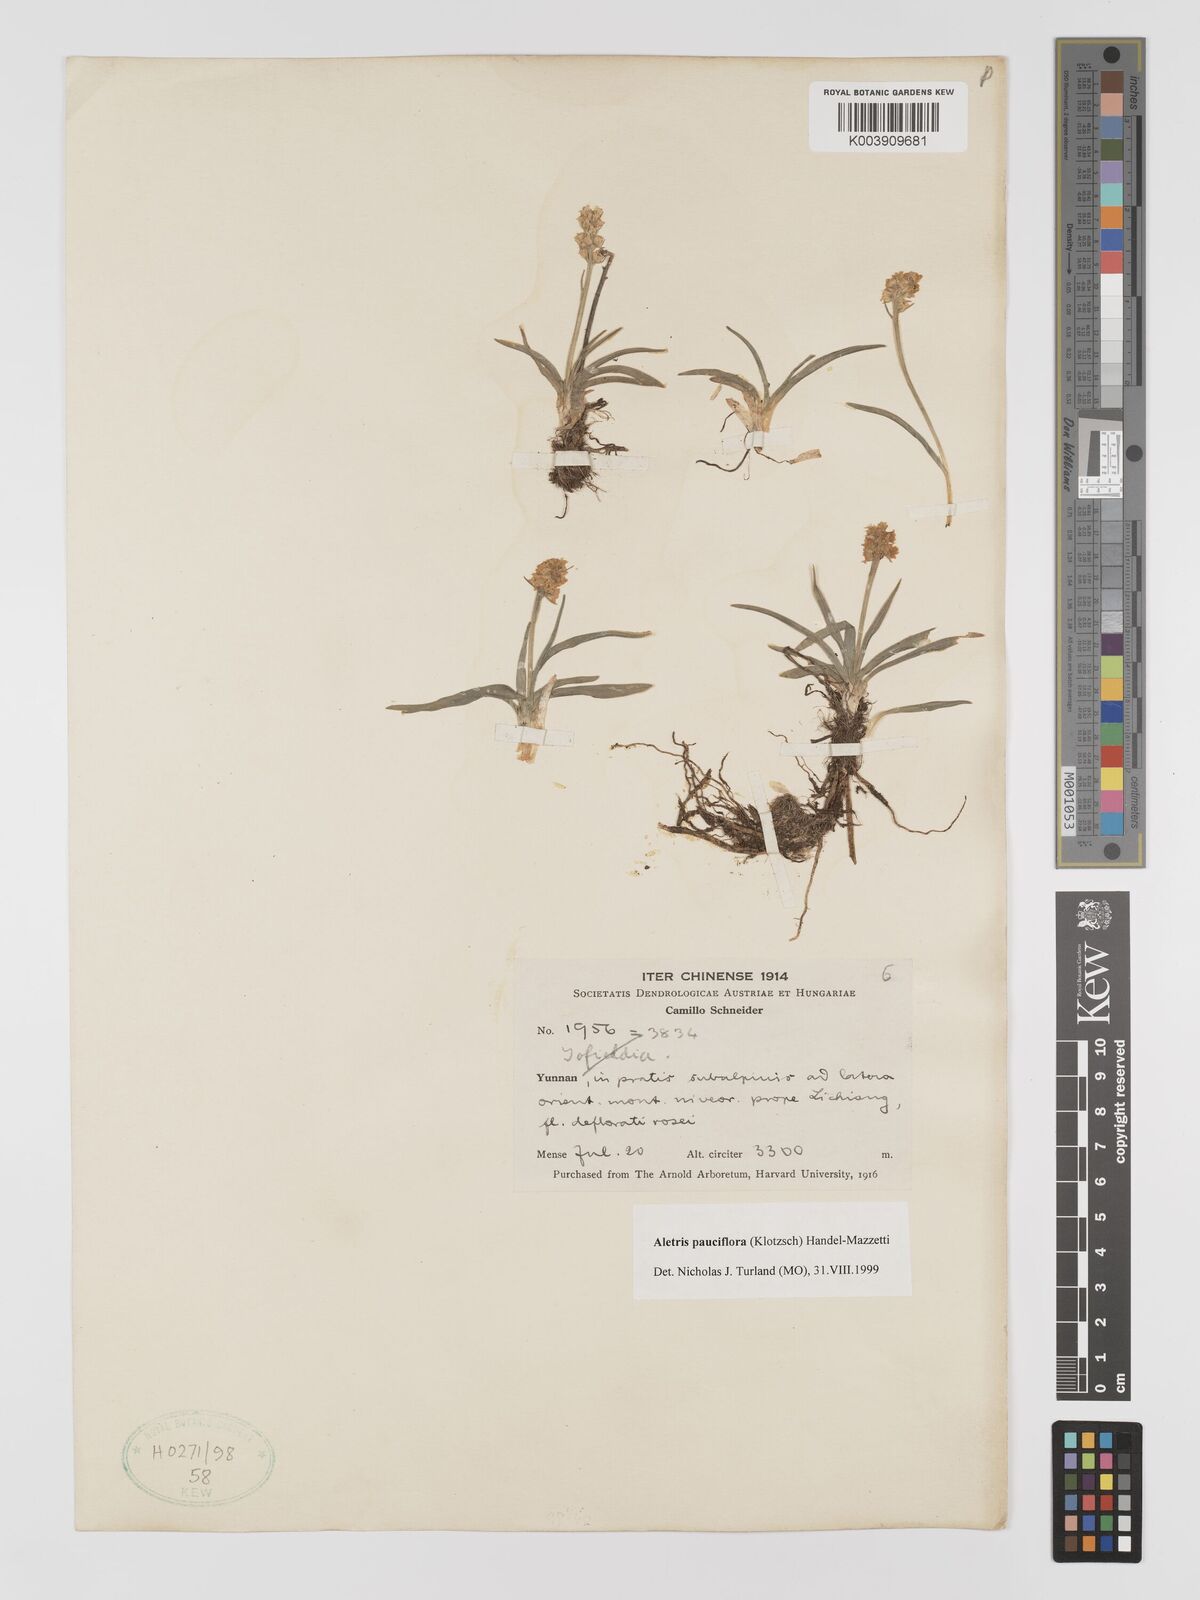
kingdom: Plantae
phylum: Tracheophyta
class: Liliopsida
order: Dioscoreales
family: Nartheciaceae
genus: Aletris
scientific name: Aletris pauciflora
